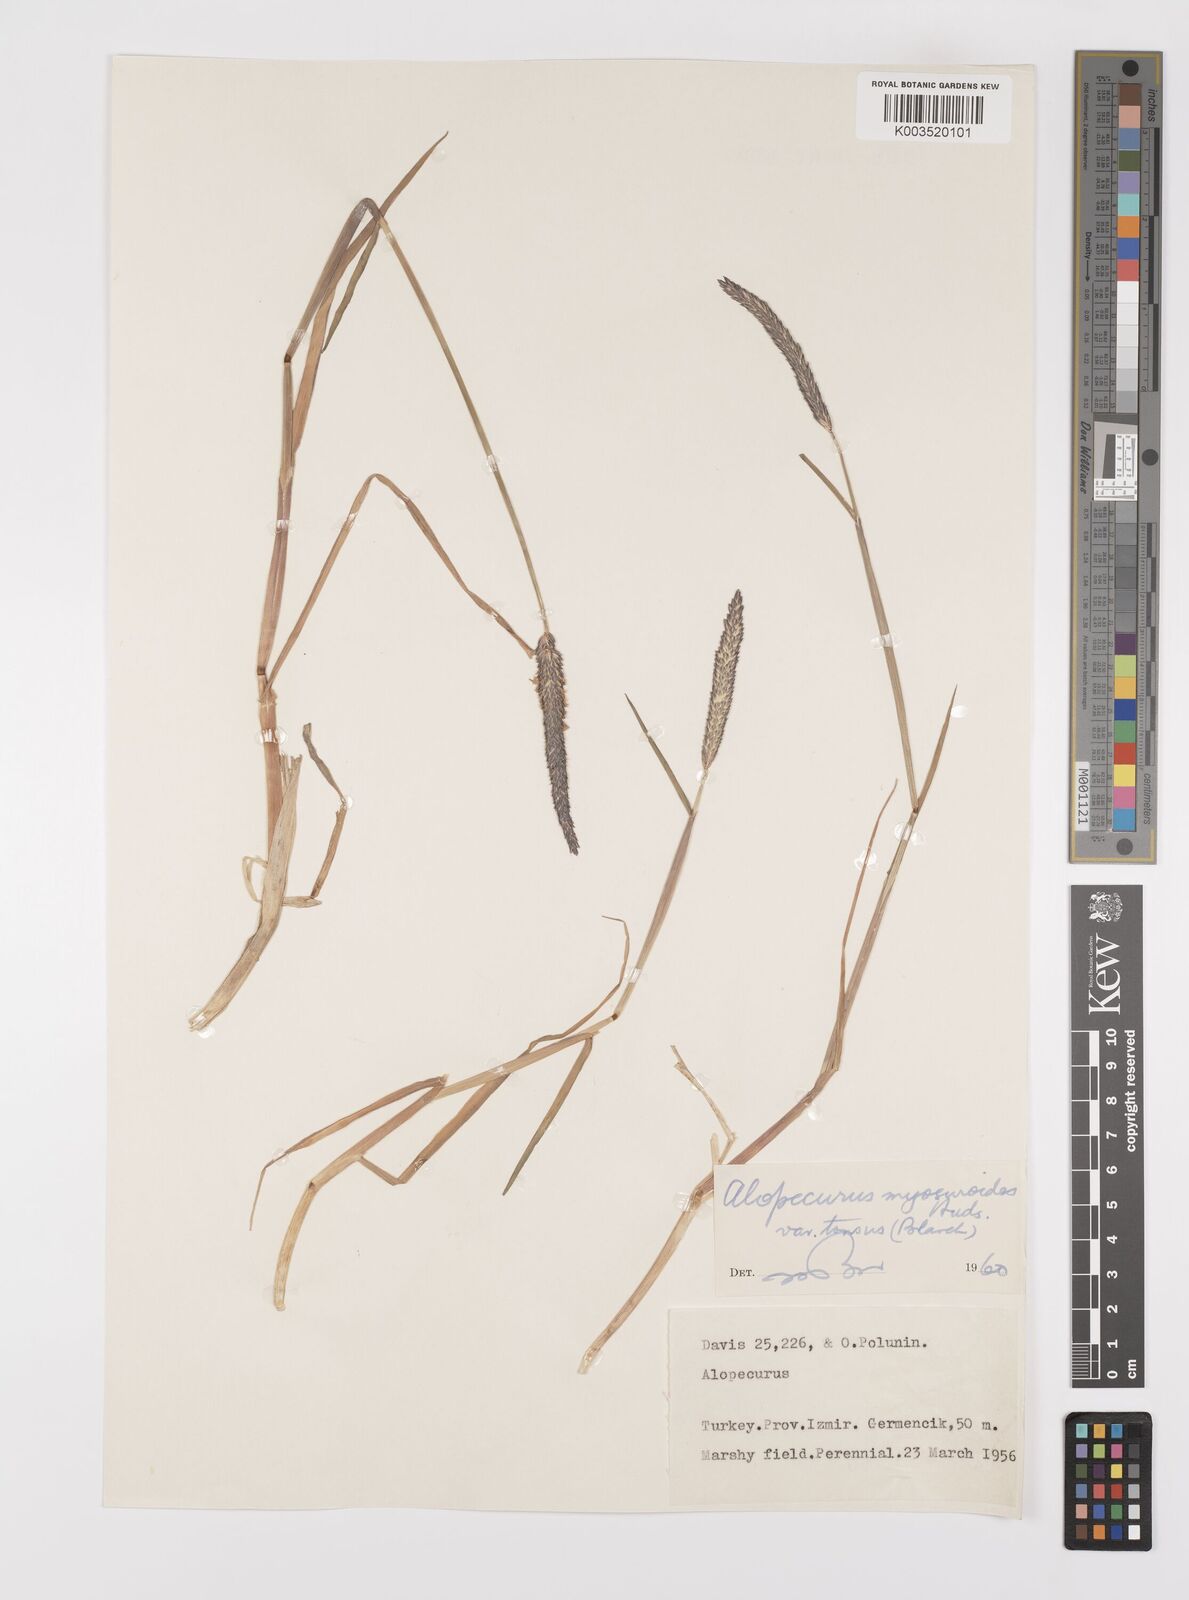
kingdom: Plantae
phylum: Tracheophyta
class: Liliopsida
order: Poales
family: Poaceae
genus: Alopecurus
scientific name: Alopecurus myosuroides
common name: Black-grass
